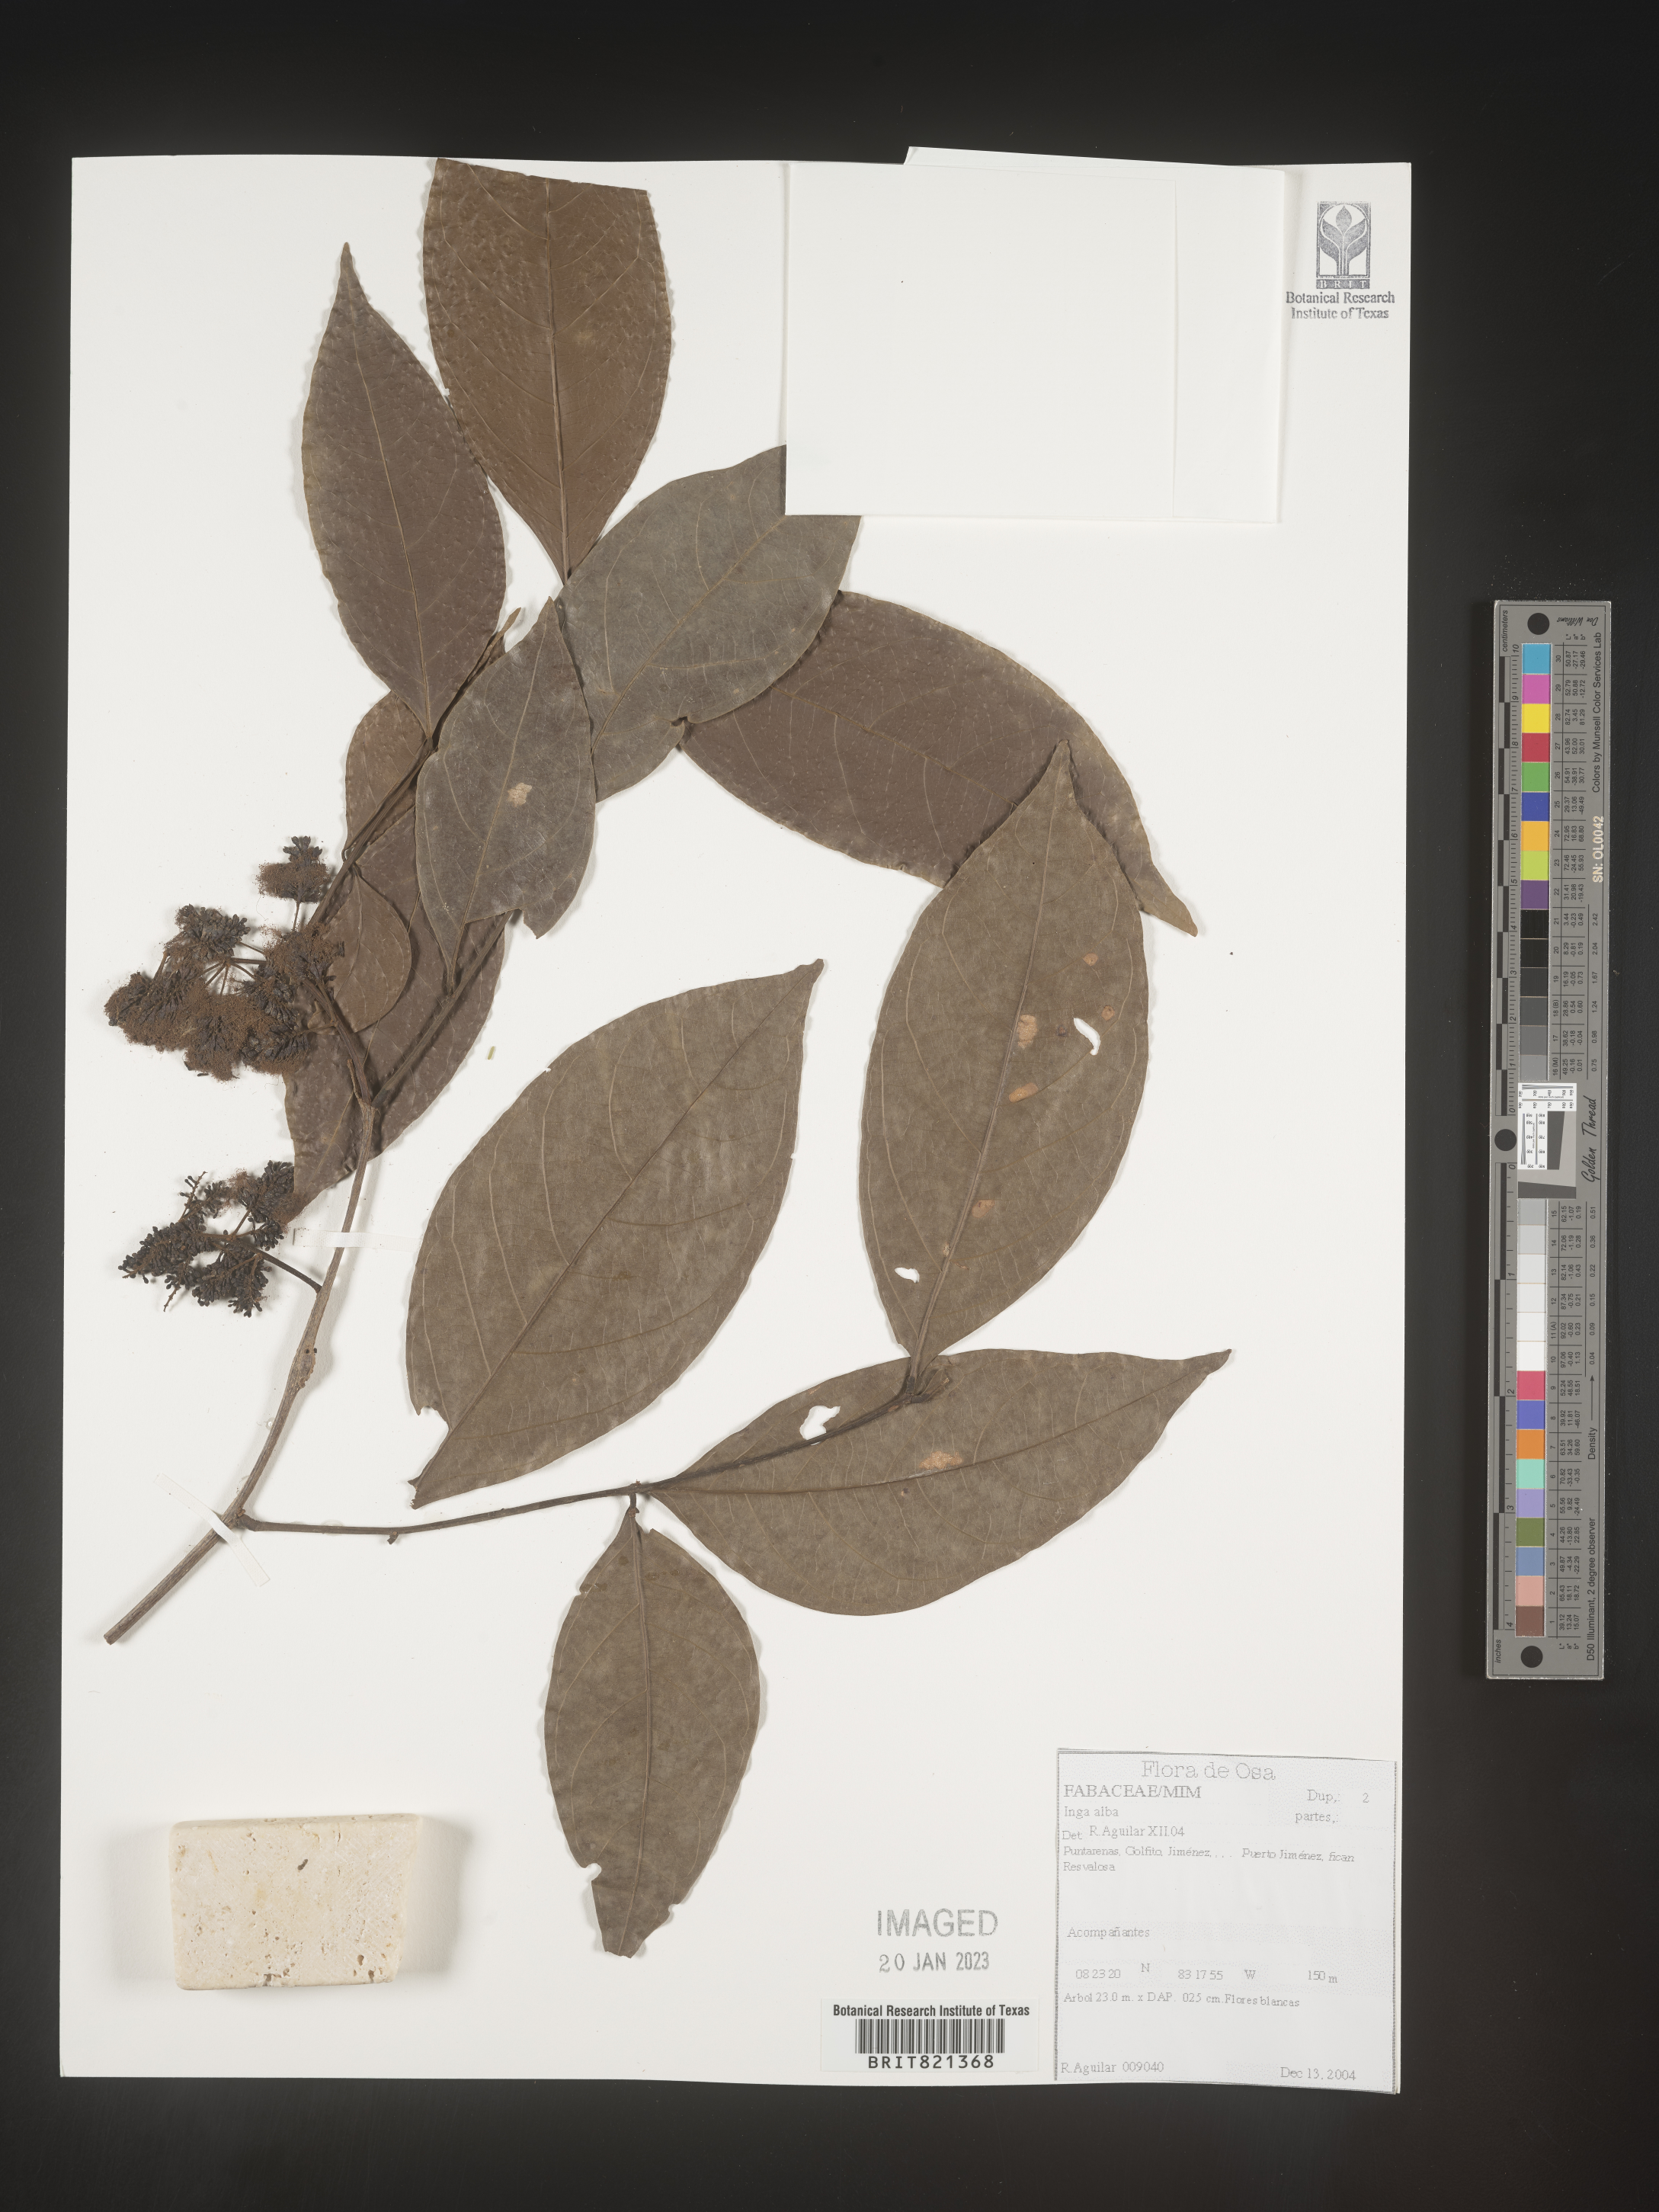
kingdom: Plantae
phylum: Tracheophyta
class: Magnoliopsida
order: Fabales
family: Fabaceae
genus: Inga
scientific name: Inga
